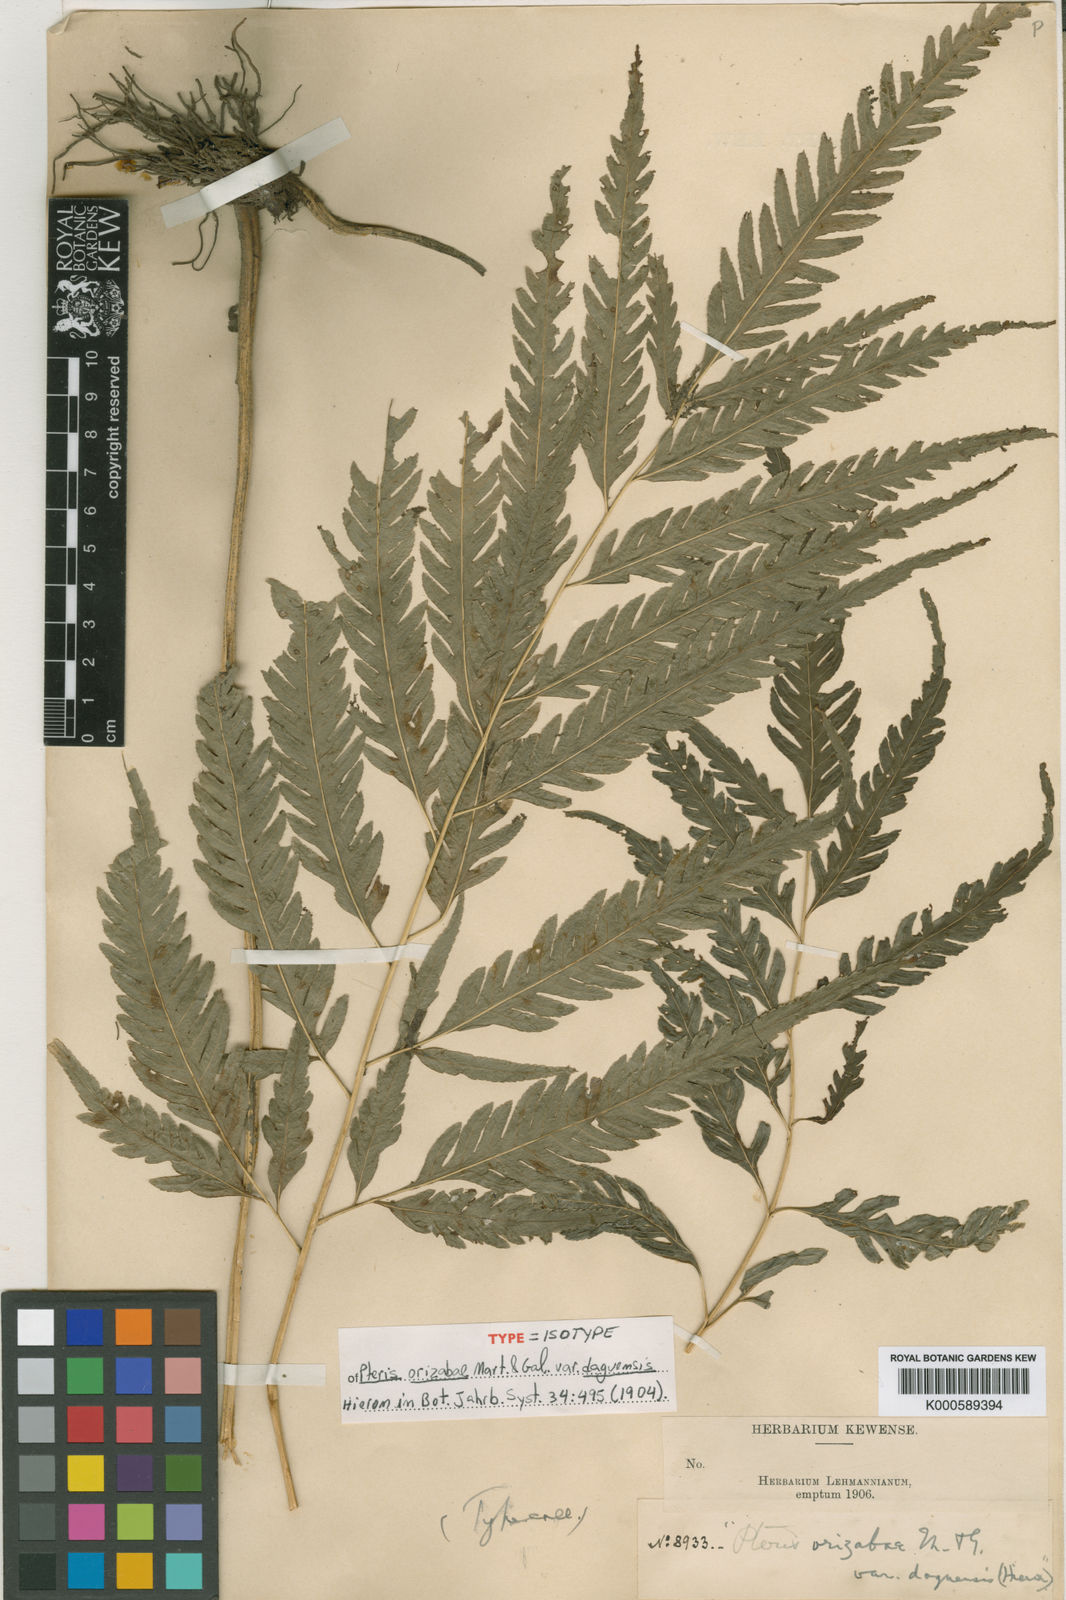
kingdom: Plantae
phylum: Tracheophyta
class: Polypodiopsida
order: Polypodiales
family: Pteridaceae
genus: Pteris
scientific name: Pteris orizabae
